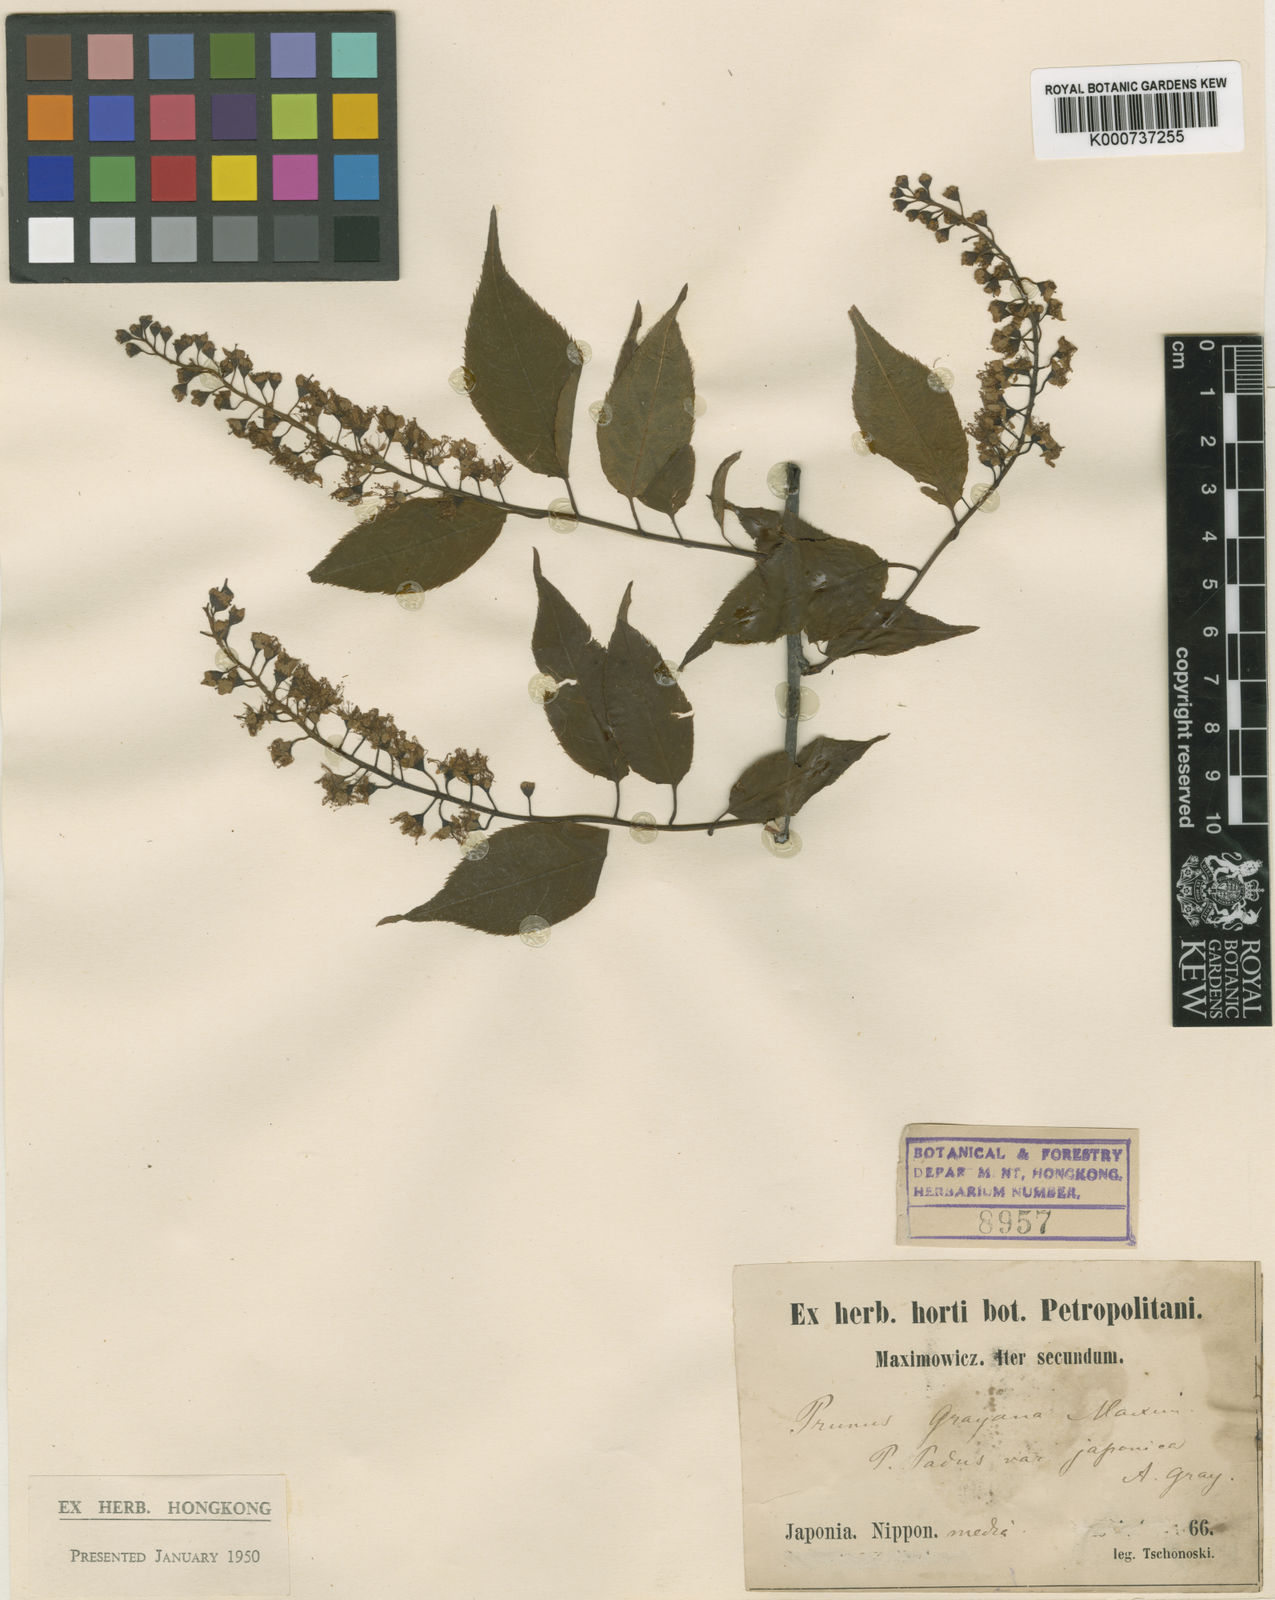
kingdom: Plantae
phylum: Tracheophyta
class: Magnoliopsida
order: Rosales
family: Rosaceae
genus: Prunus
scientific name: Prunus grayana
